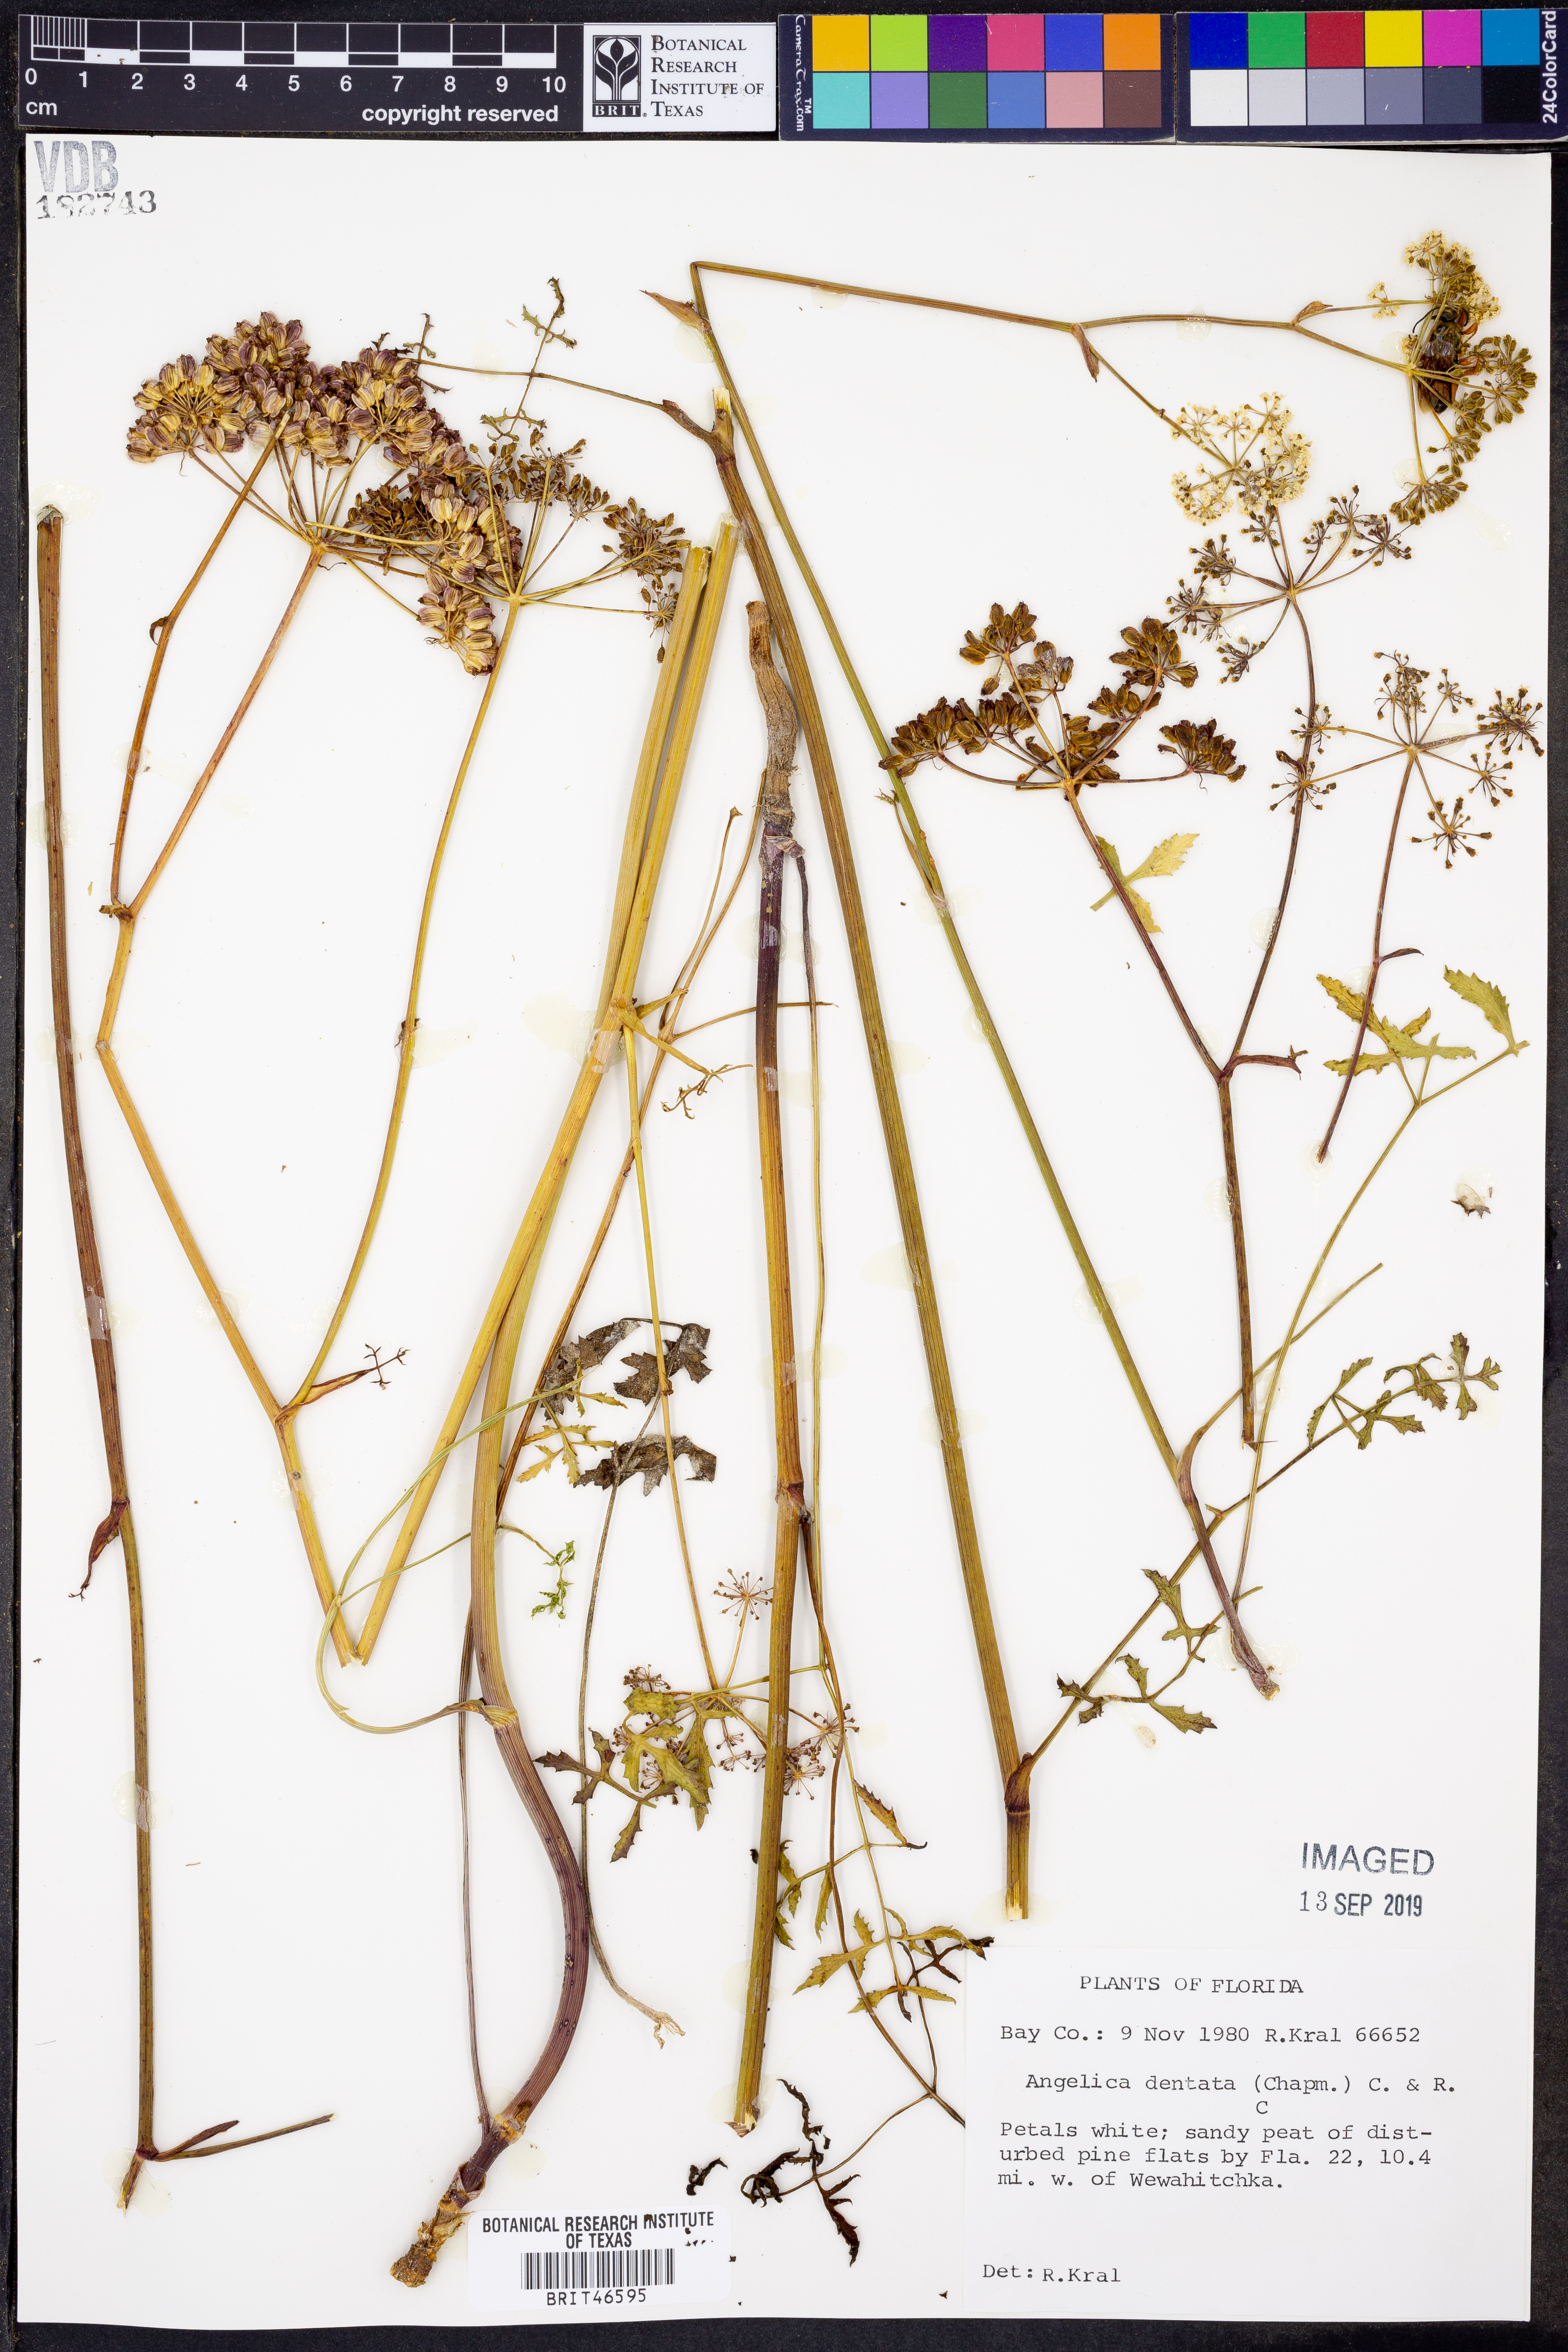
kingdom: Plantae
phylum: Tracheophyta
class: Magnoliopsida
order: Apiales
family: Apiaceae
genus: Angelica
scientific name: Angelica venenosa
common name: Hairy angelica
